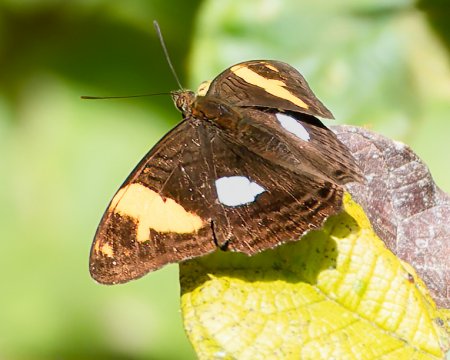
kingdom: Animalia
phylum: Arthropoda
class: Insecta
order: Lepidoptera
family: Nymphalidae
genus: Limenitis
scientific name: Limenitis Adelpha demialba
